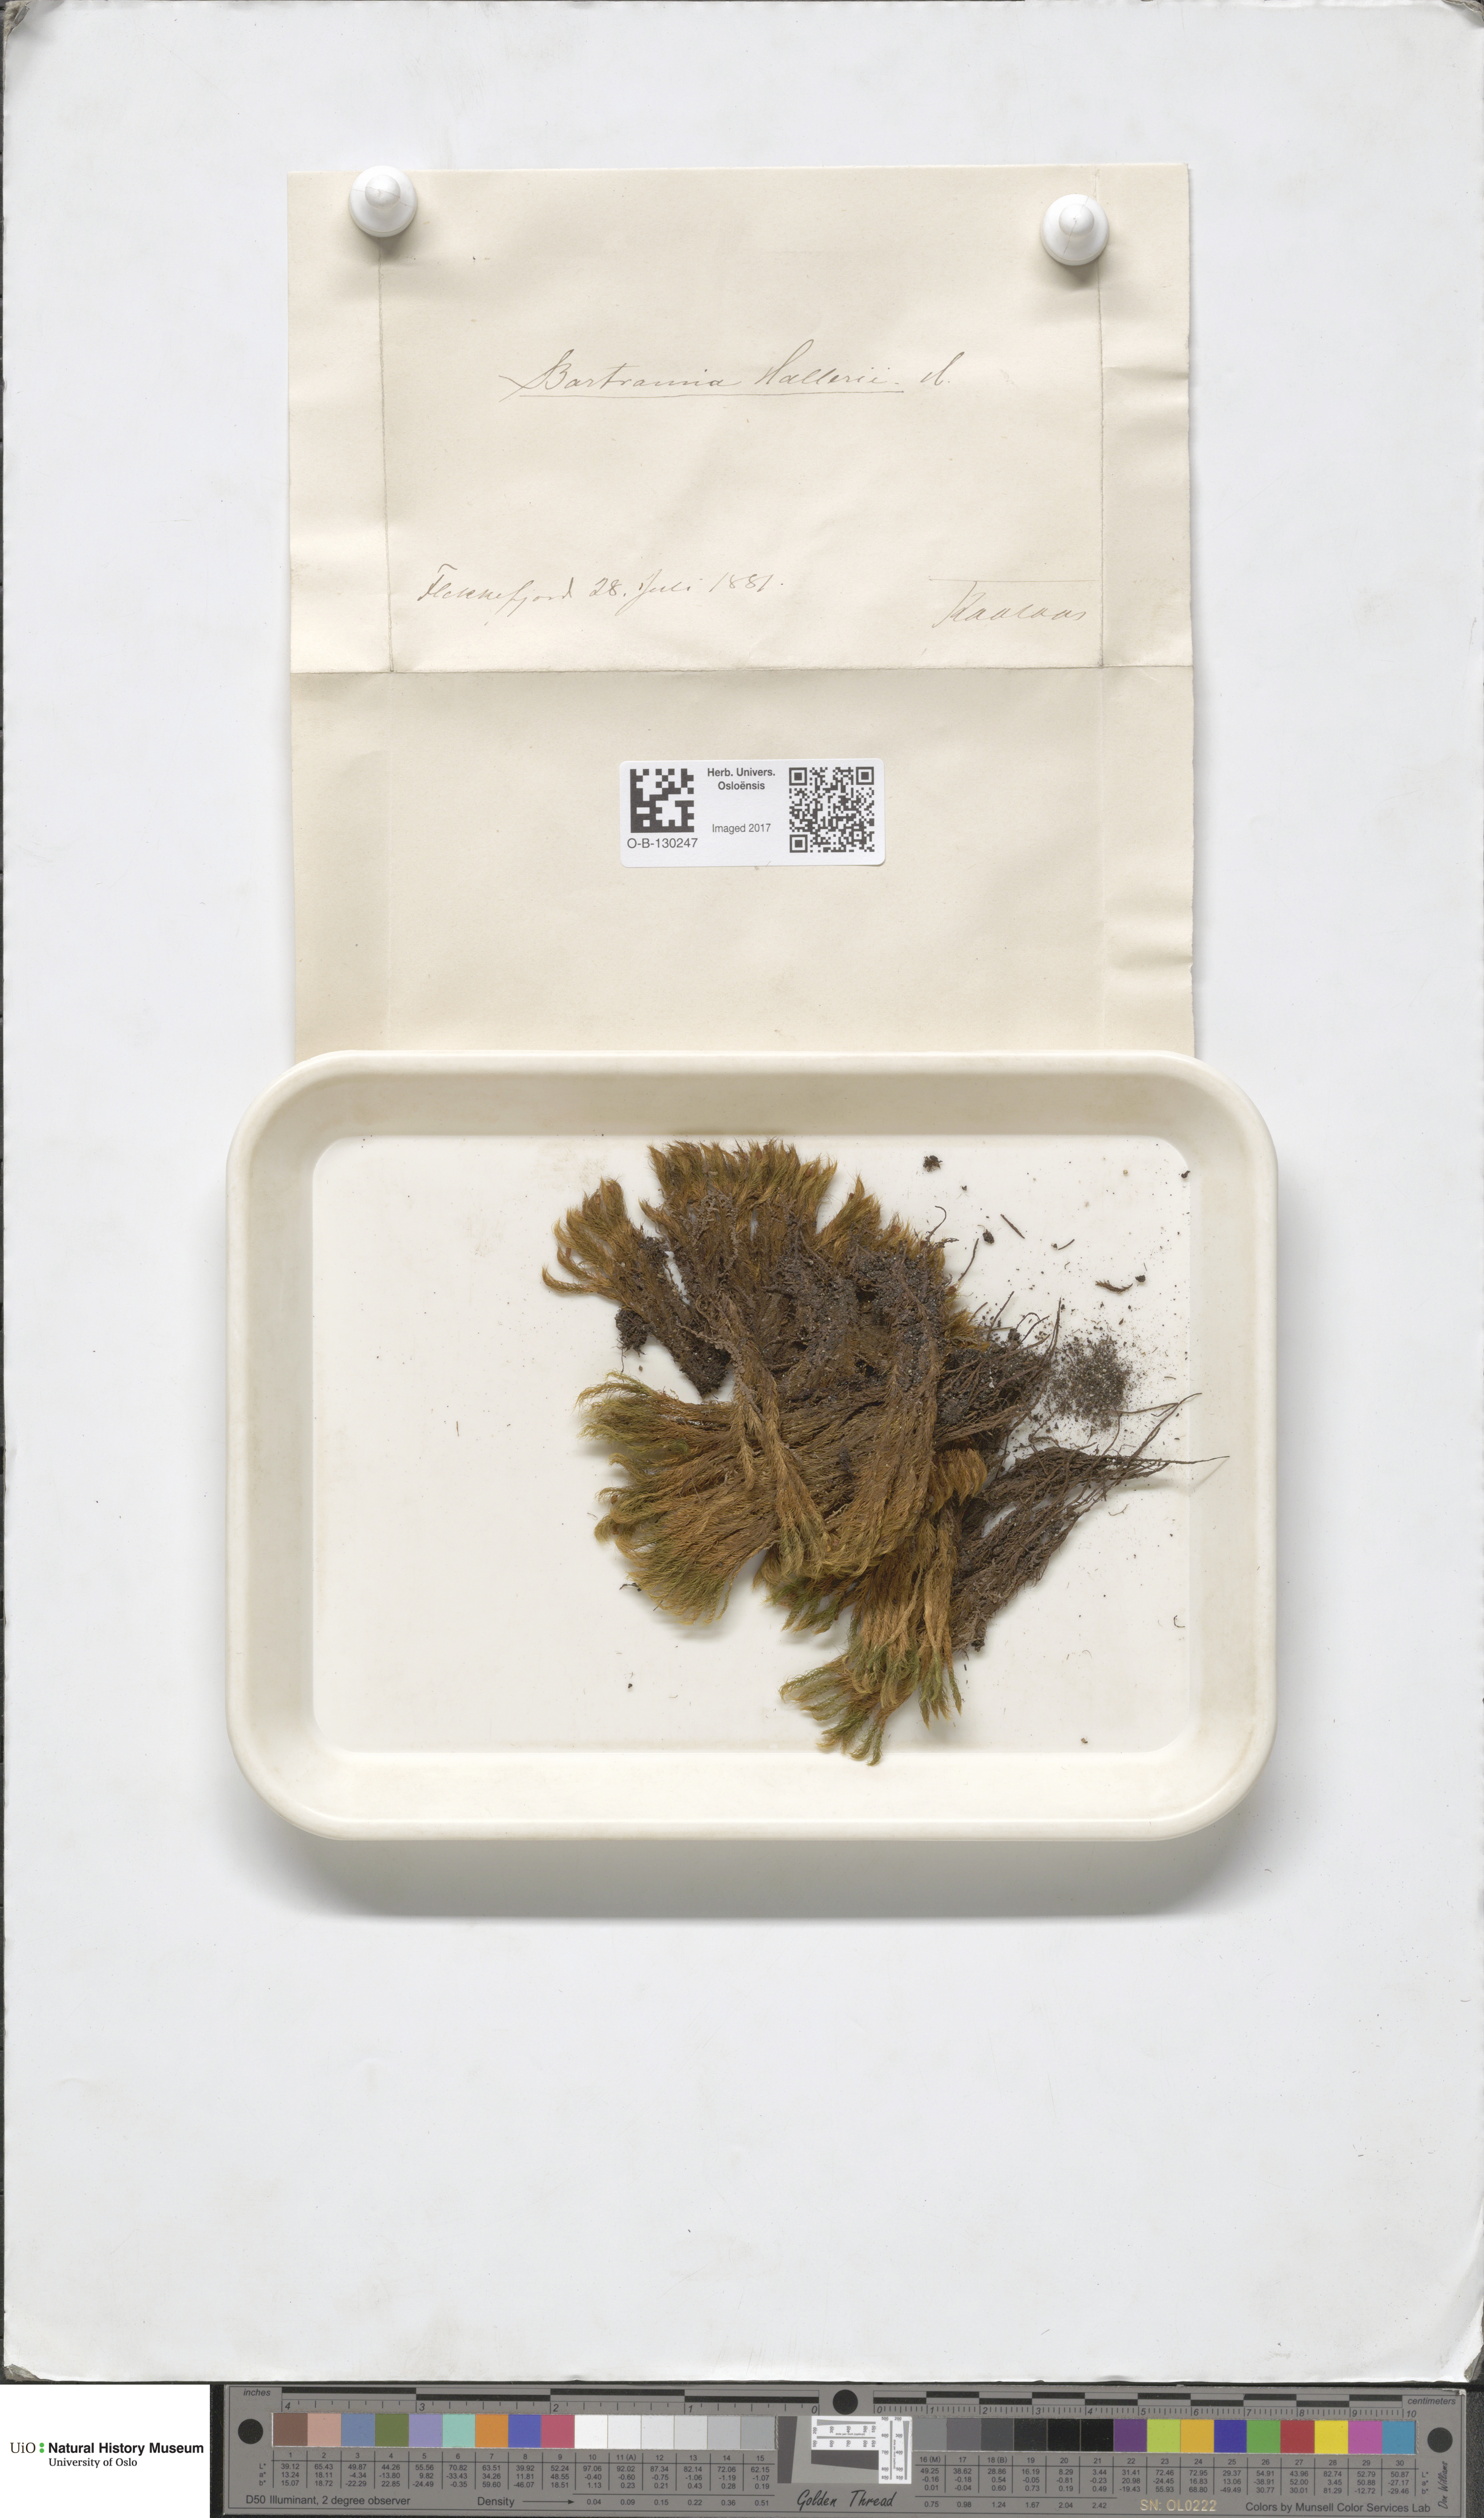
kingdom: Plantae
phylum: Bryophyta
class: Bryopsida
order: Bartramiales
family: Bartramiaceae
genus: Bartramia
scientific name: Bartramia halleriana
